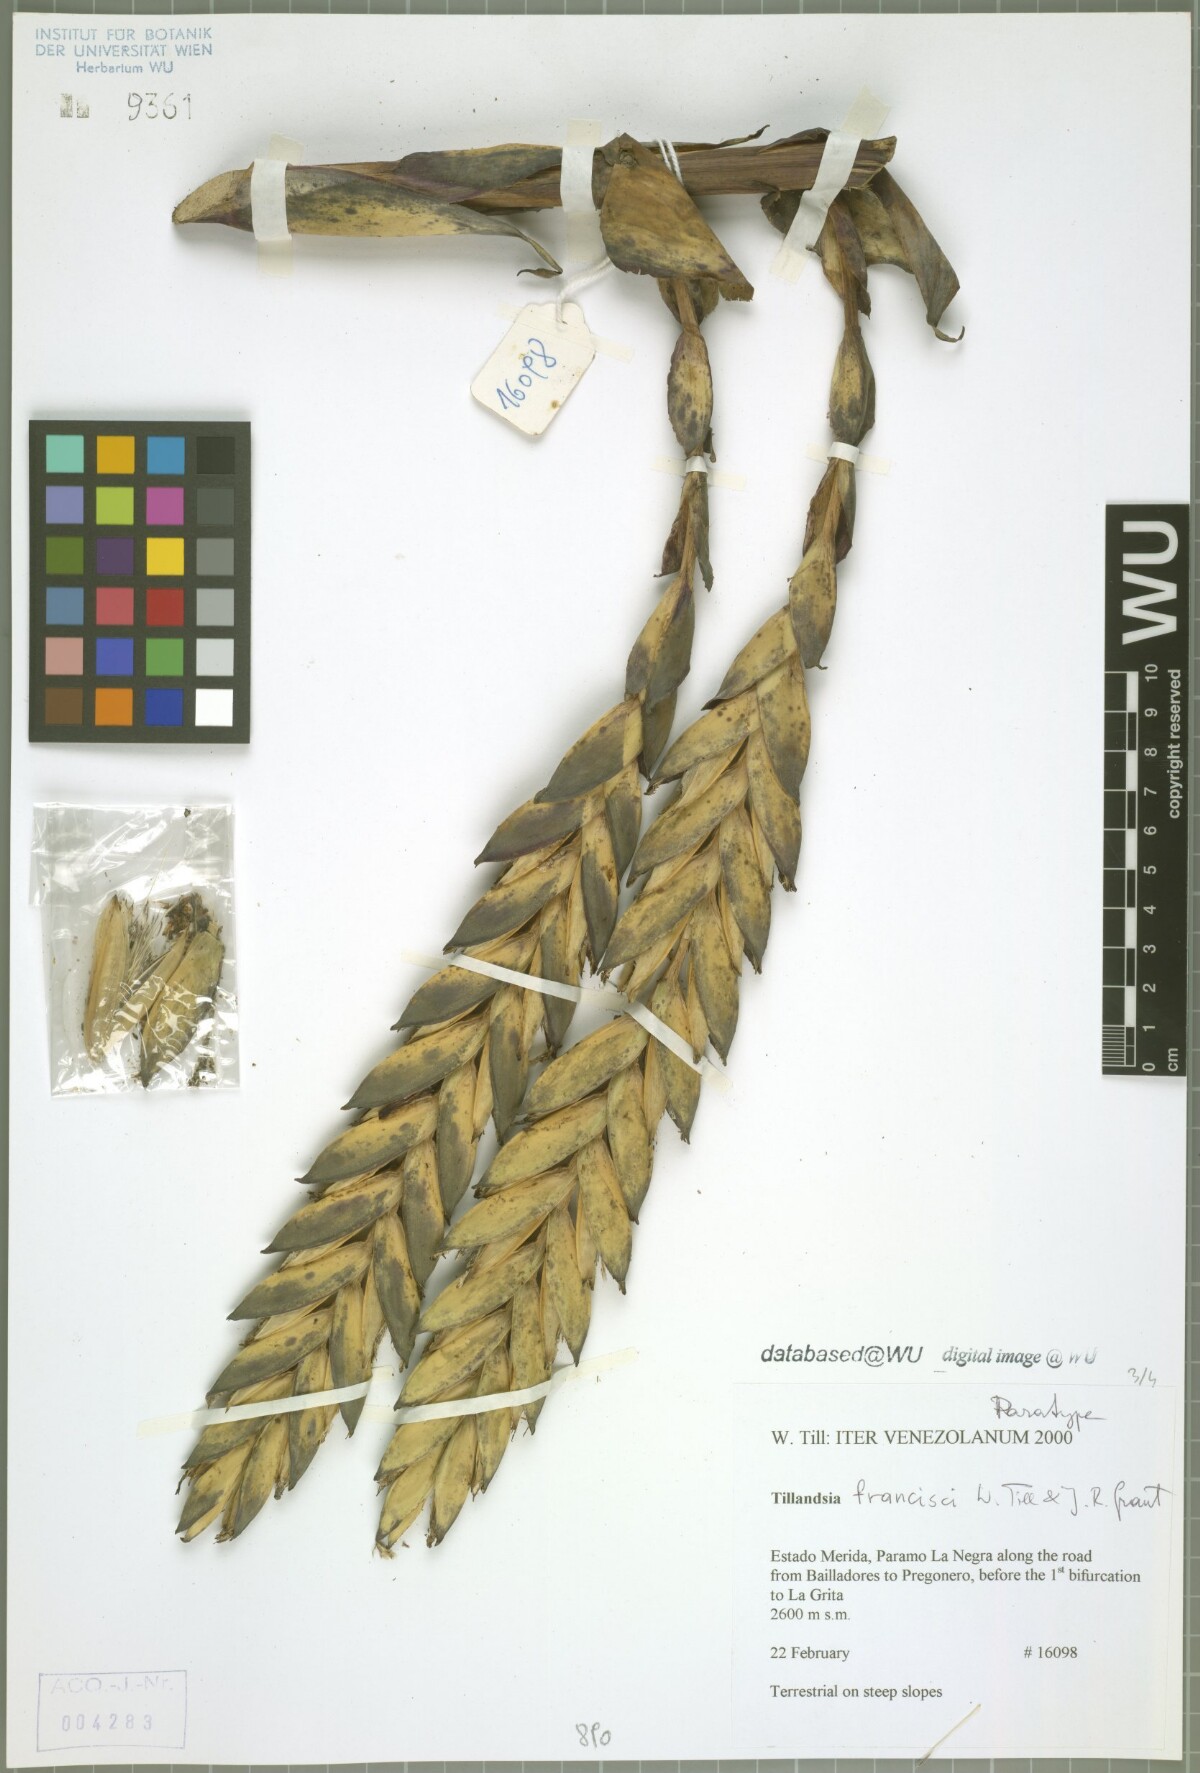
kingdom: Plantae
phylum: Tracheophyta
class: Liliopsida
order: Poales
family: Bromeliaceae
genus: Tillandsia
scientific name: Tillandsia francisci
